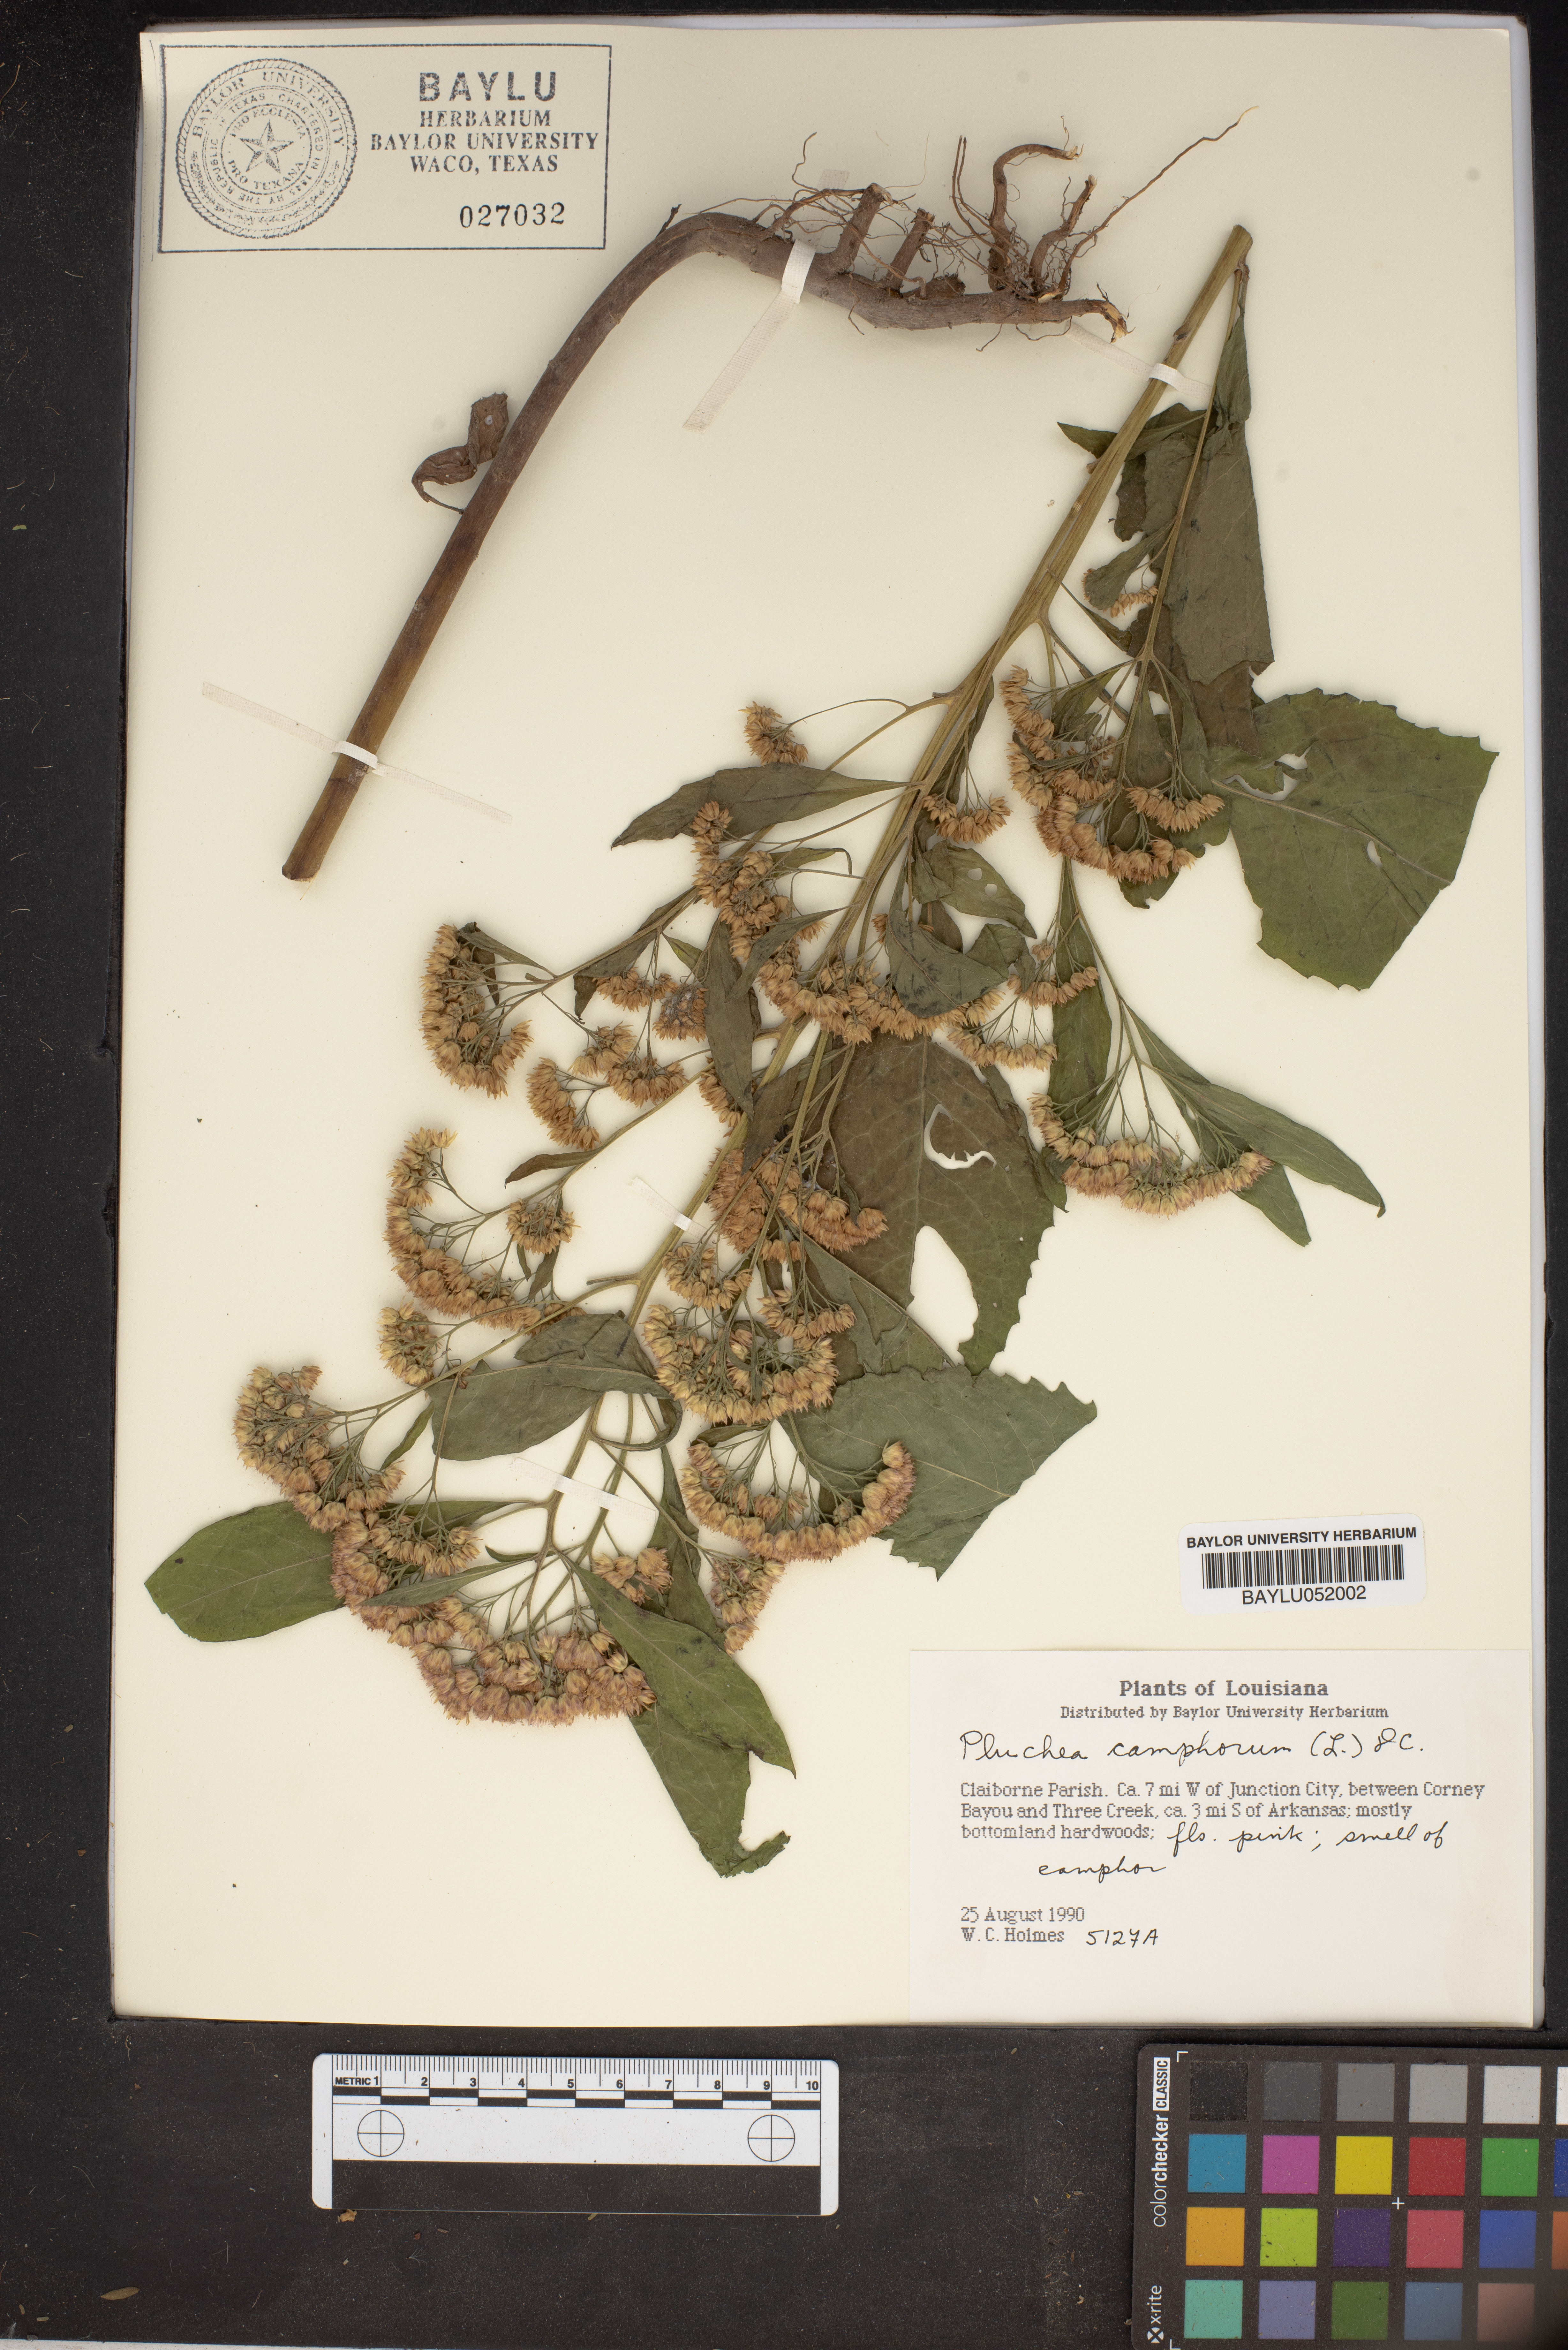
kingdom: Plantae
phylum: Tracheophyta
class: Magnoliopsida
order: Asterales
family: Asteraceae
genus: Pluchea
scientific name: Pluchea camphorata
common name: Camphor pluchea
